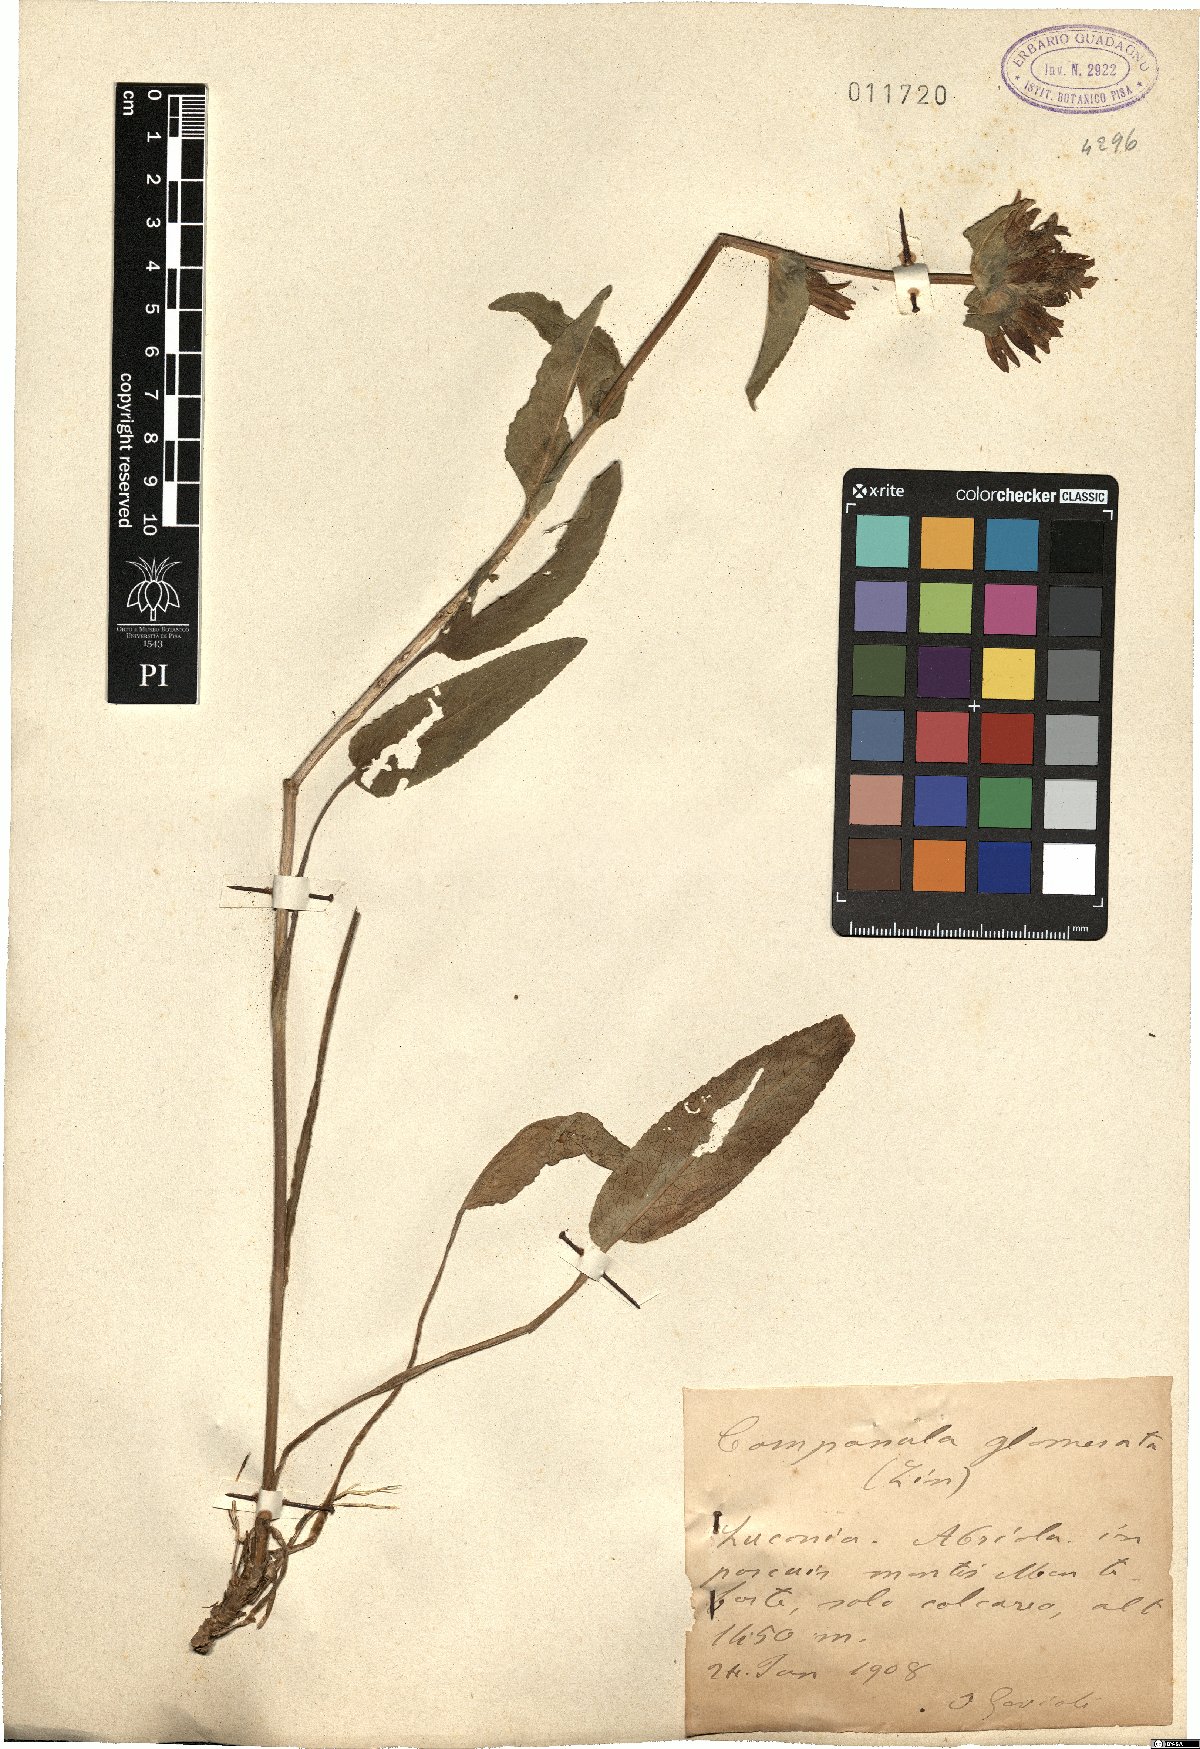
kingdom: Plantae
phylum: Tracheophyta
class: Magnoliopsida
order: Asterales
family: Campanulaceae
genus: Campanula
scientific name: Campanula glomerata
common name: Clustered bellflower
